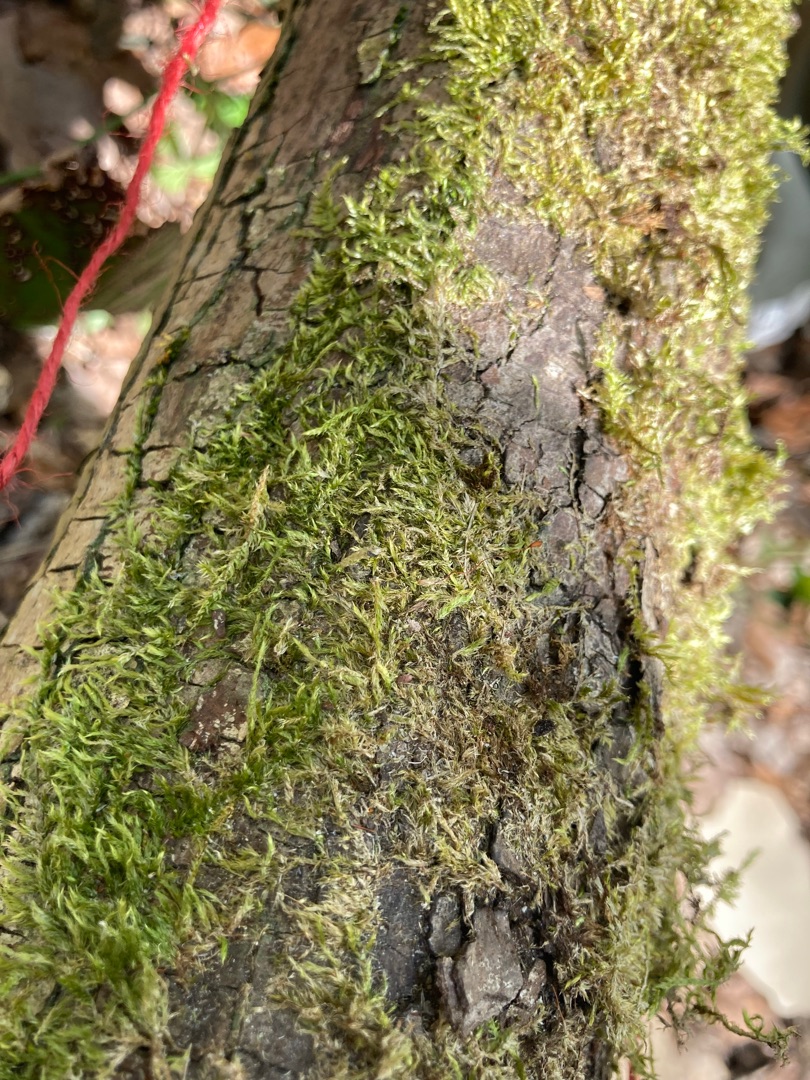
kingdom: Plantae
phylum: Bryophyta
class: Bryopsida
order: Hypnales
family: Hypnaceae
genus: Hypnum
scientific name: Hypnum
